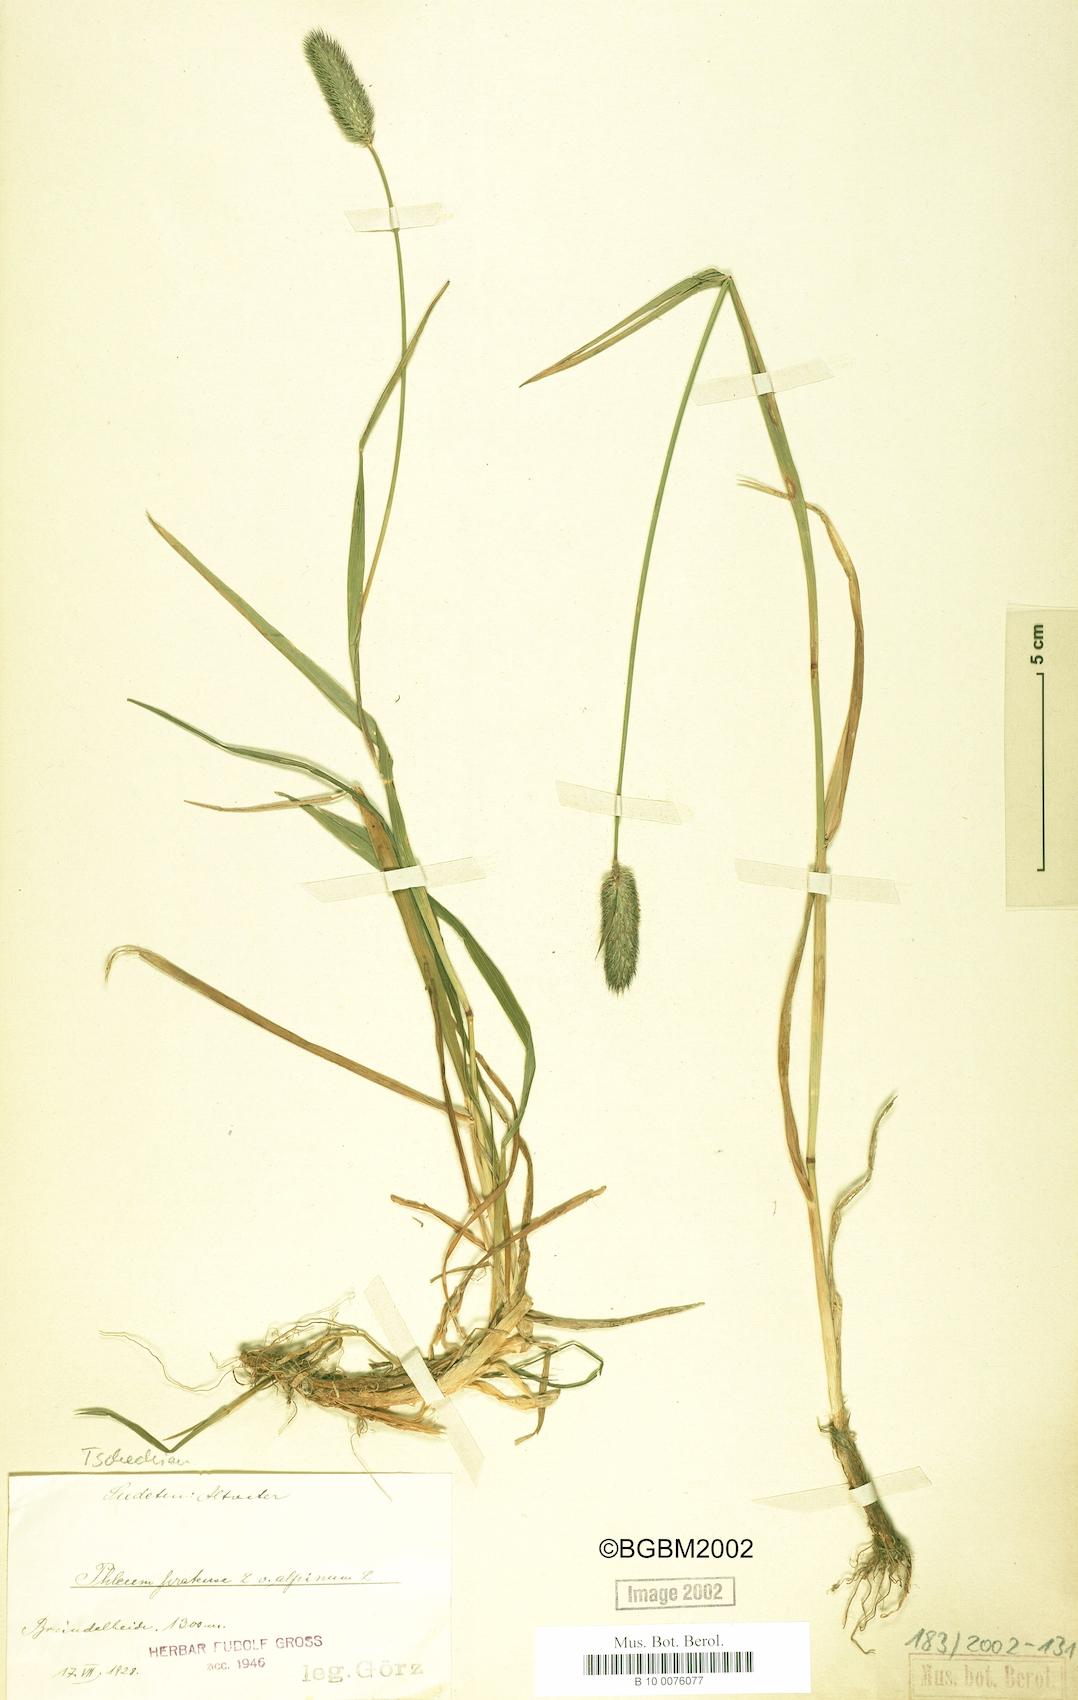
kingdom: Plantae
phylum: Tracheophyta
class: Liliopsida
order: Poales
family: Poaceae
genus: Phleum
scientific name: Phleum alpinum
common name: Alpine cat's-tail
